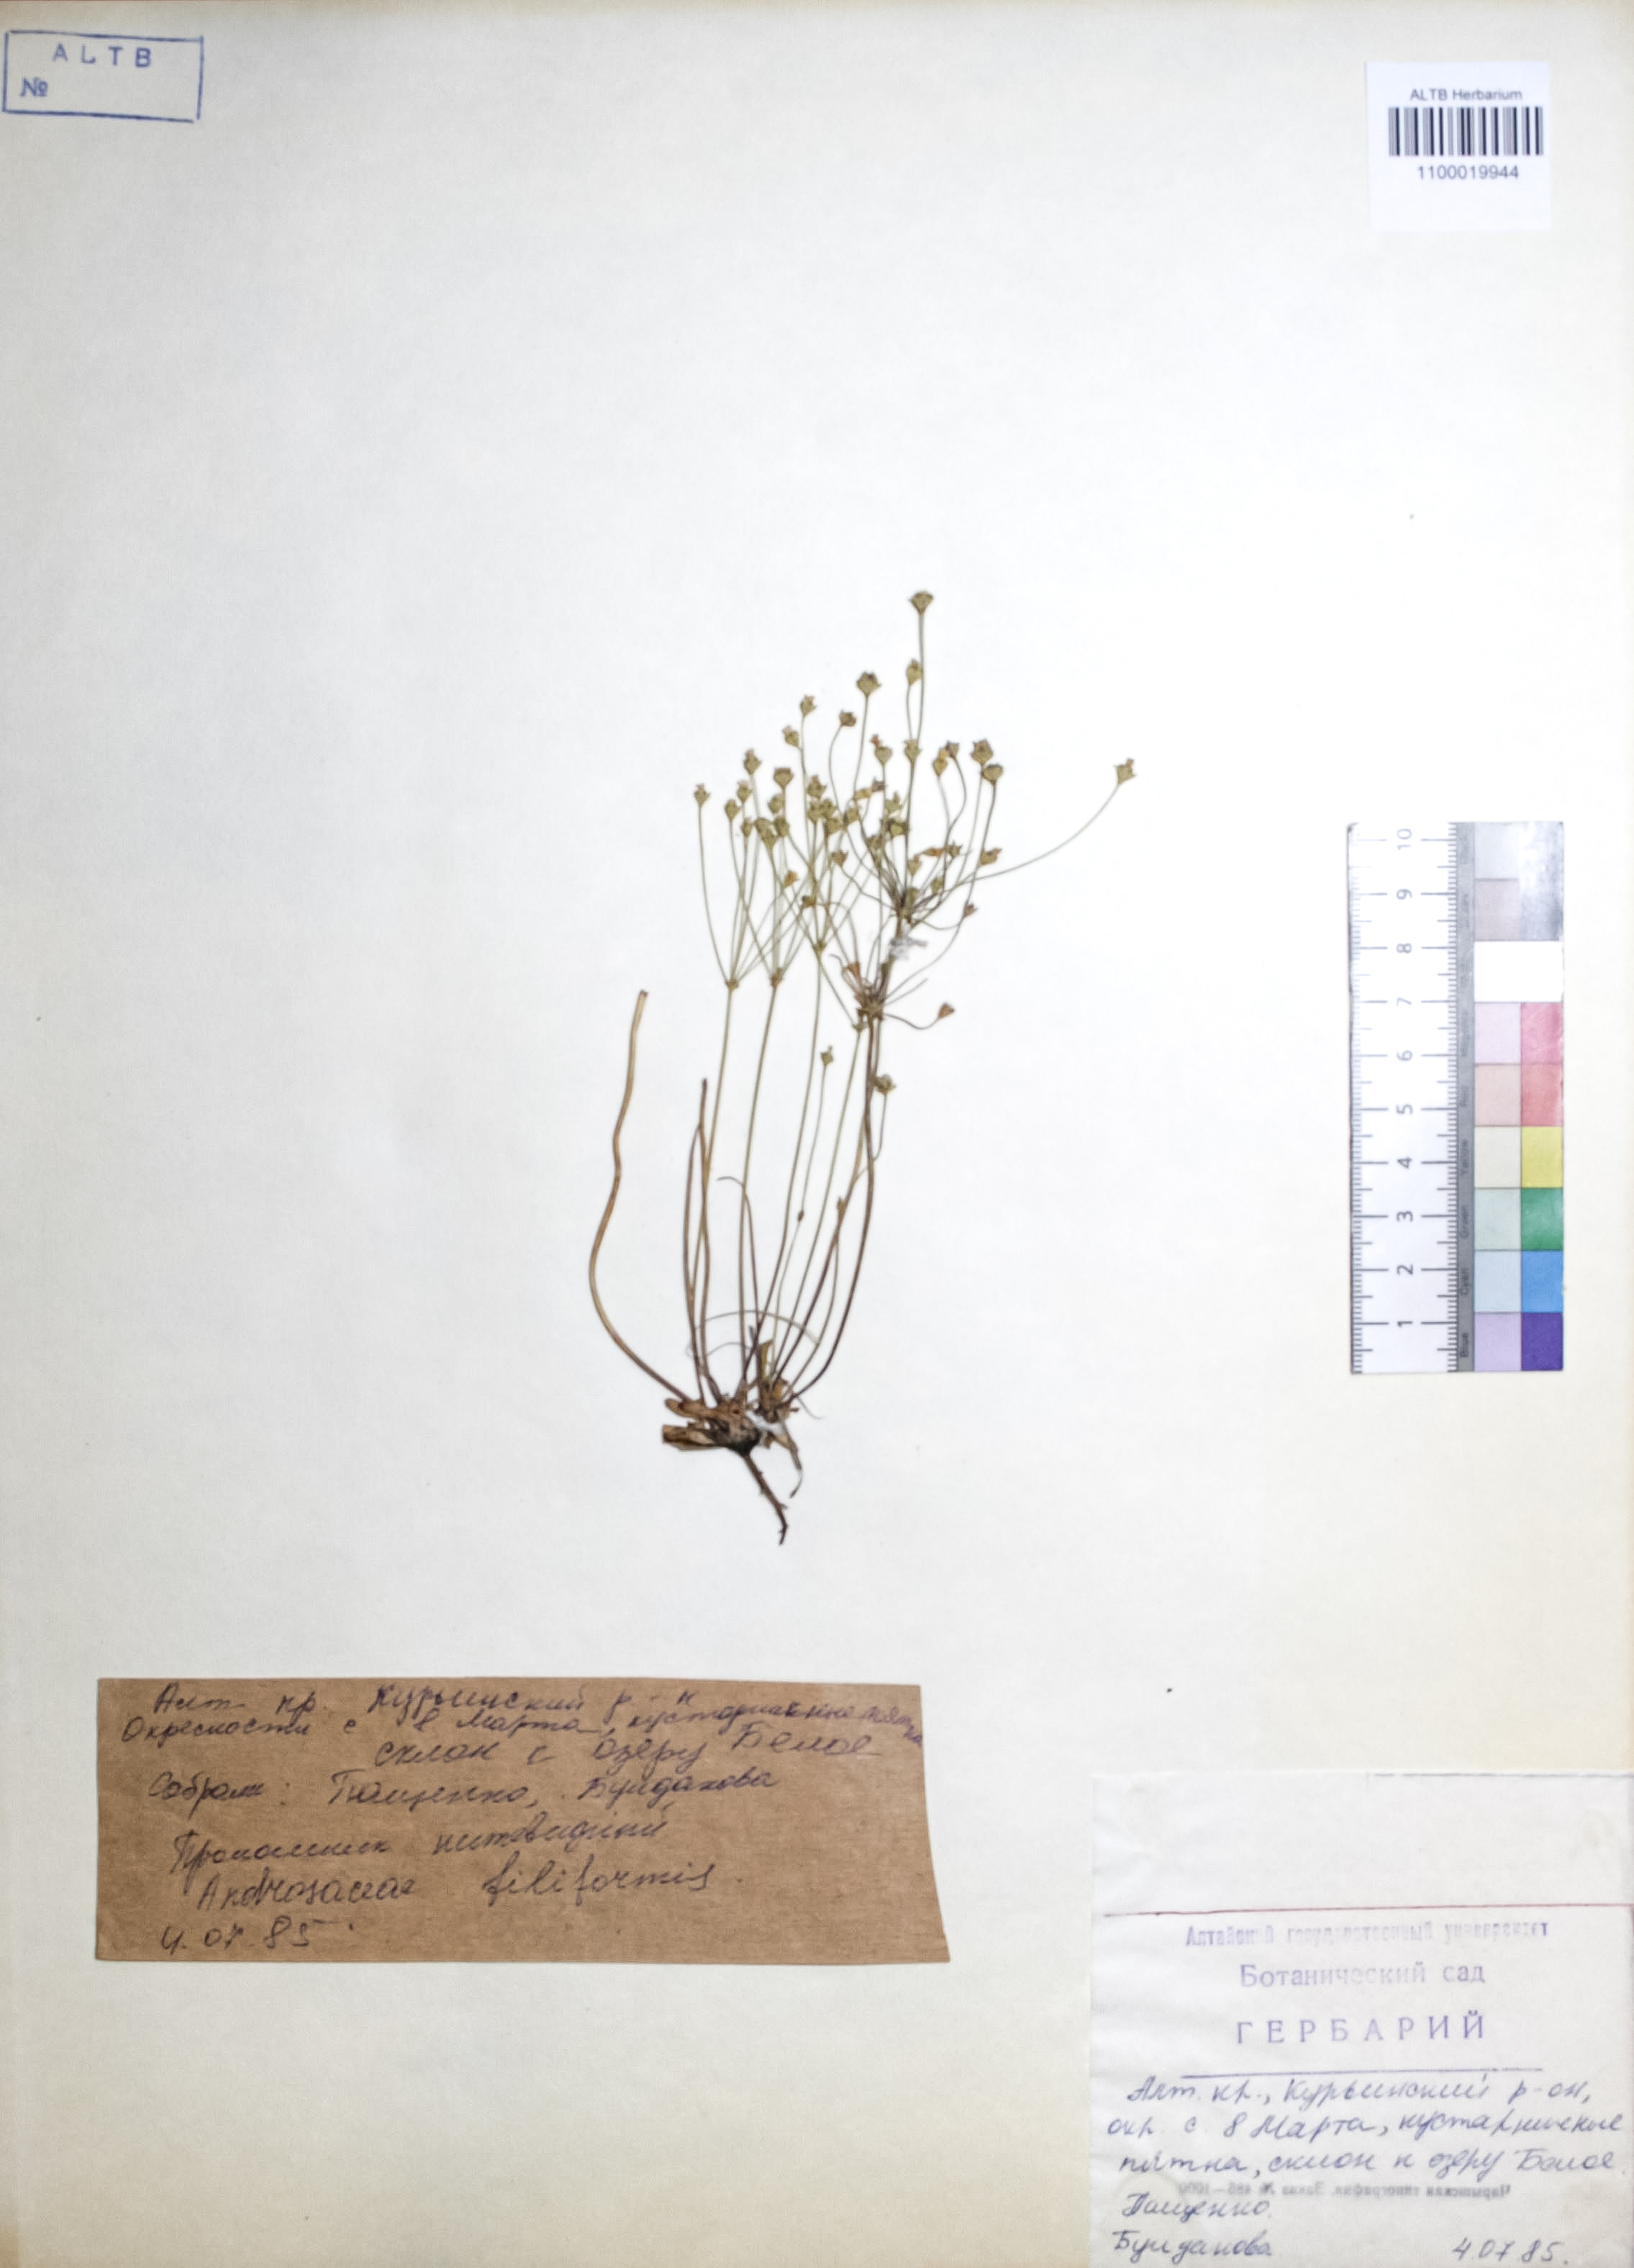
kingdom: Plantae
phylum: Tracheophyta
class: Magnoliopsida
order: Ericales
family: Primulaceae
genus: Androsace
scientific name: Androsace filiformis
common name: Filiform rock jasmine
